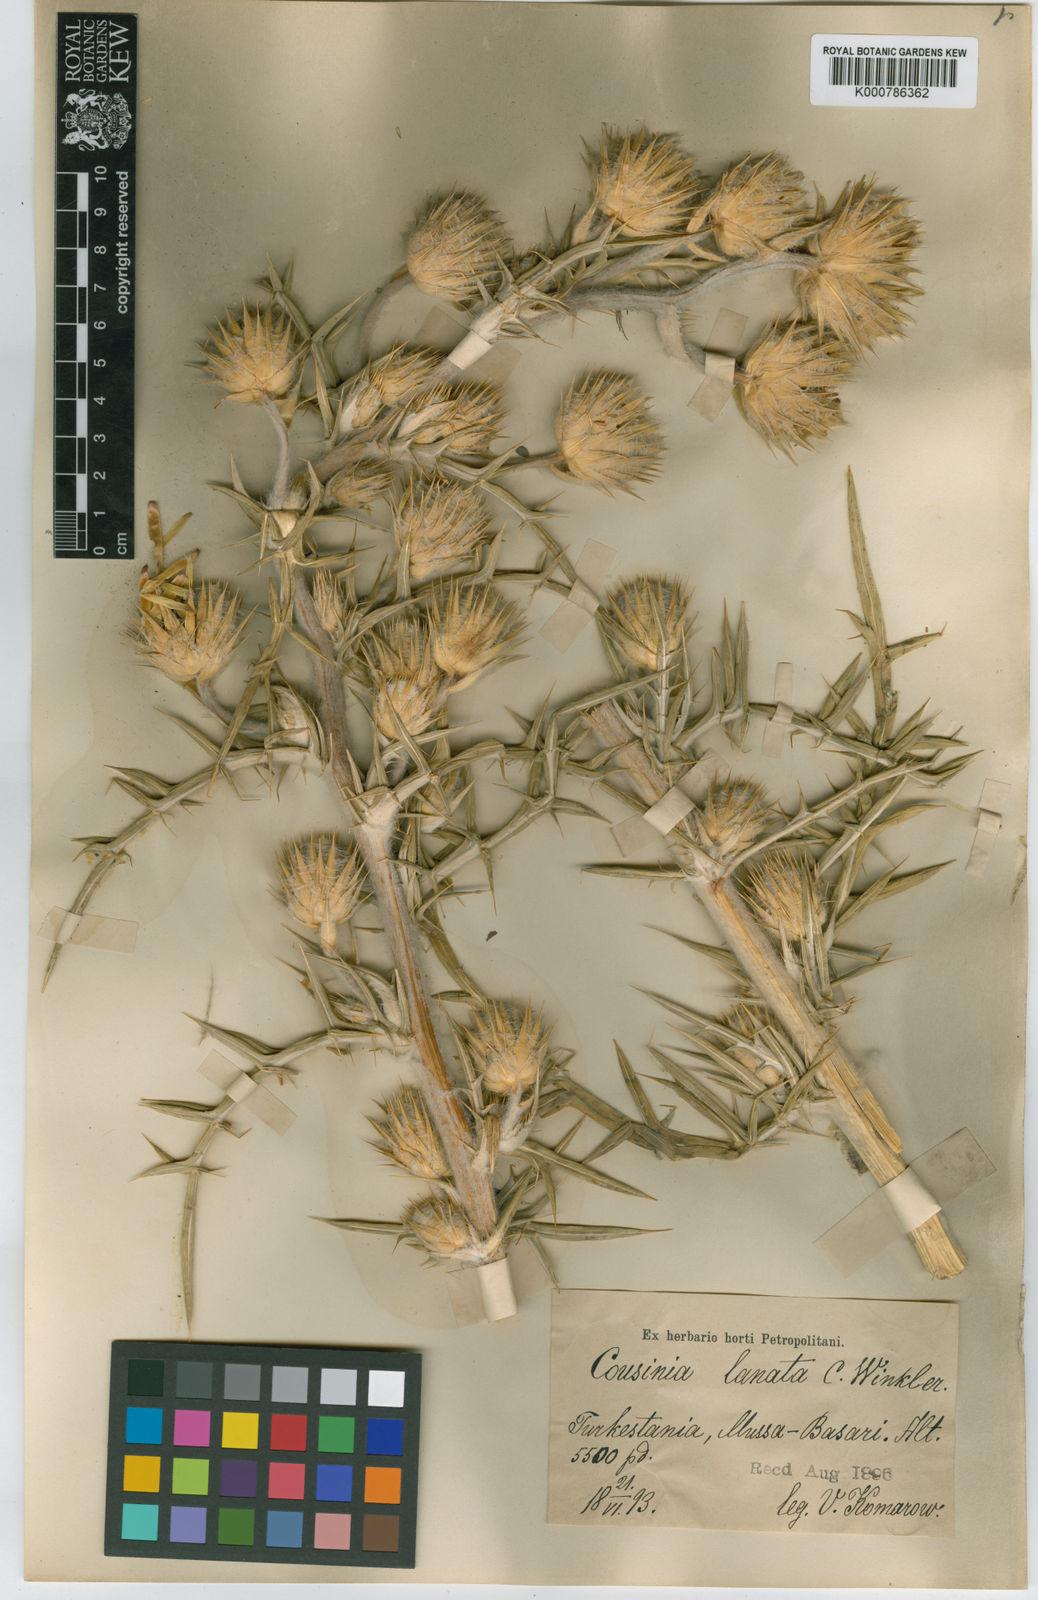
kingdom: Plantae
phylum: Tracheophyta
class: Magnoliopsida
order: Asterales
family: Asteraceae
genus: Cousinia
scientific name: Cousinia tenella
